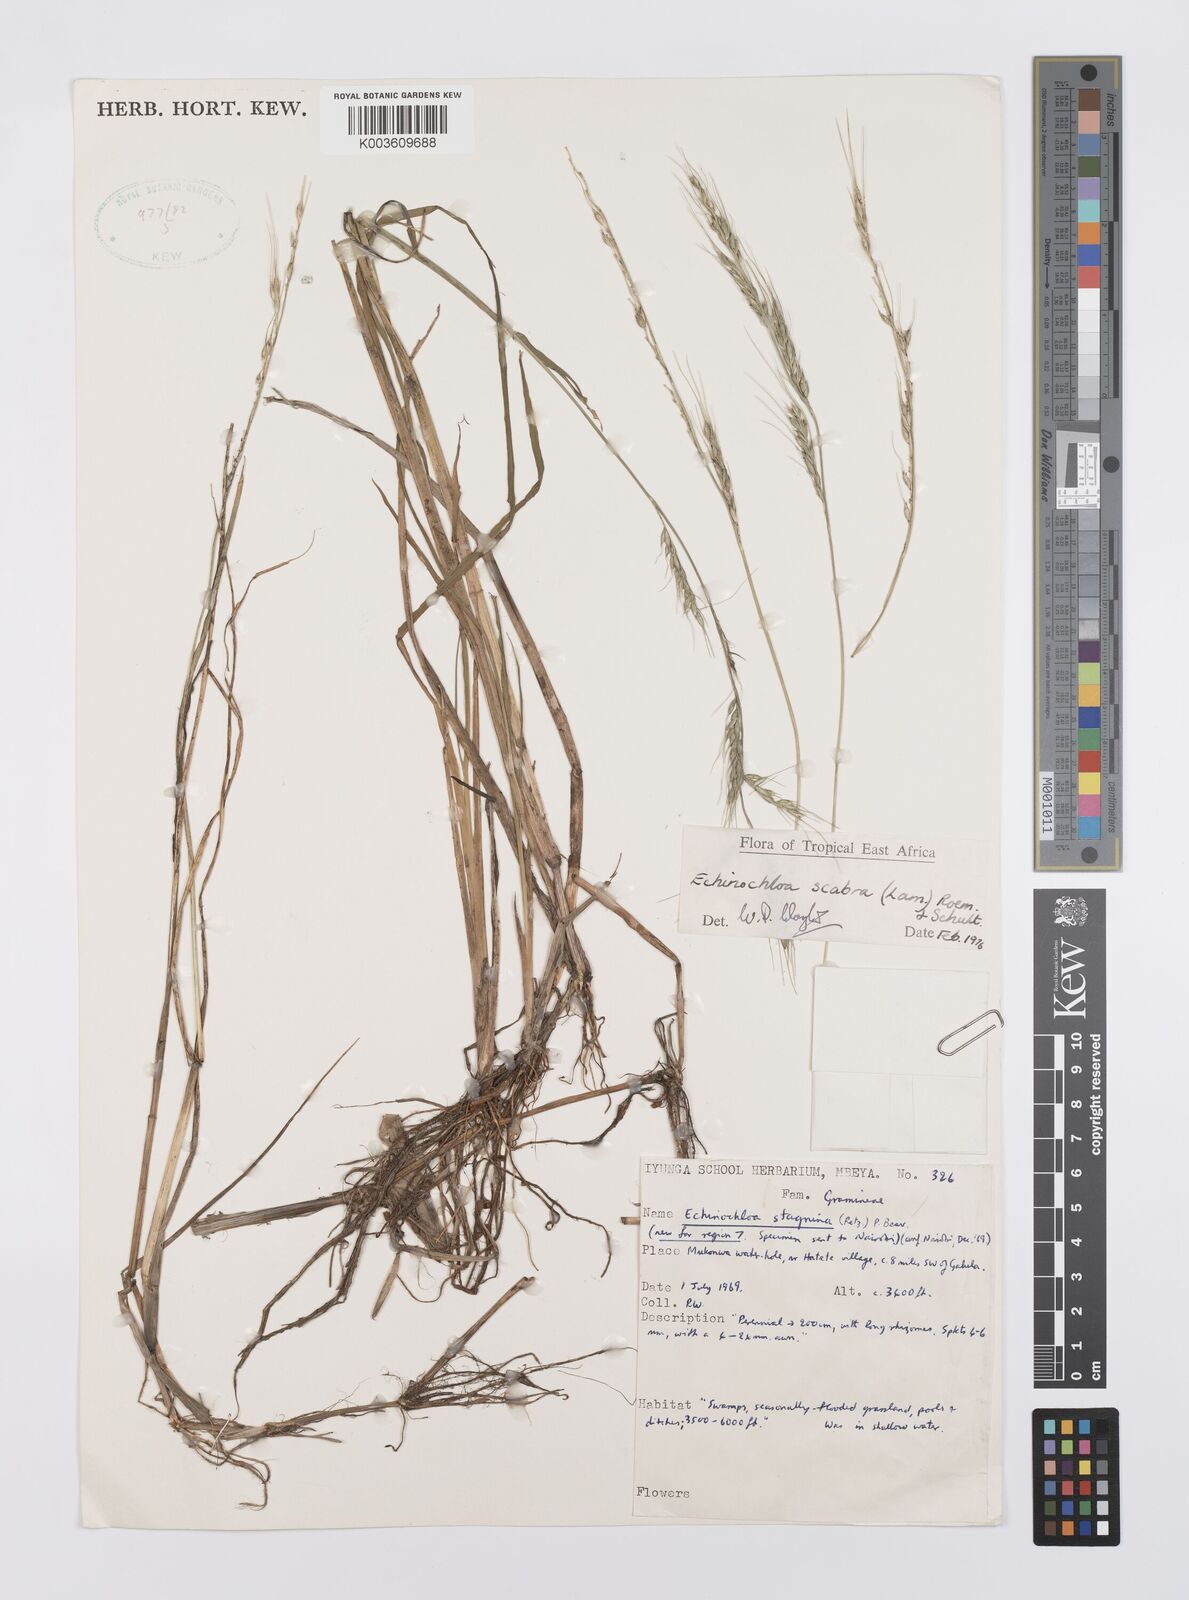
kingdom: Plantae
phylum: Tracheophyta
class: Liliopsida
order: Poales
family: Poaceae
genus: Echinochloa
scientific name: Echinochloa stagnina
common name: Burgu grass
